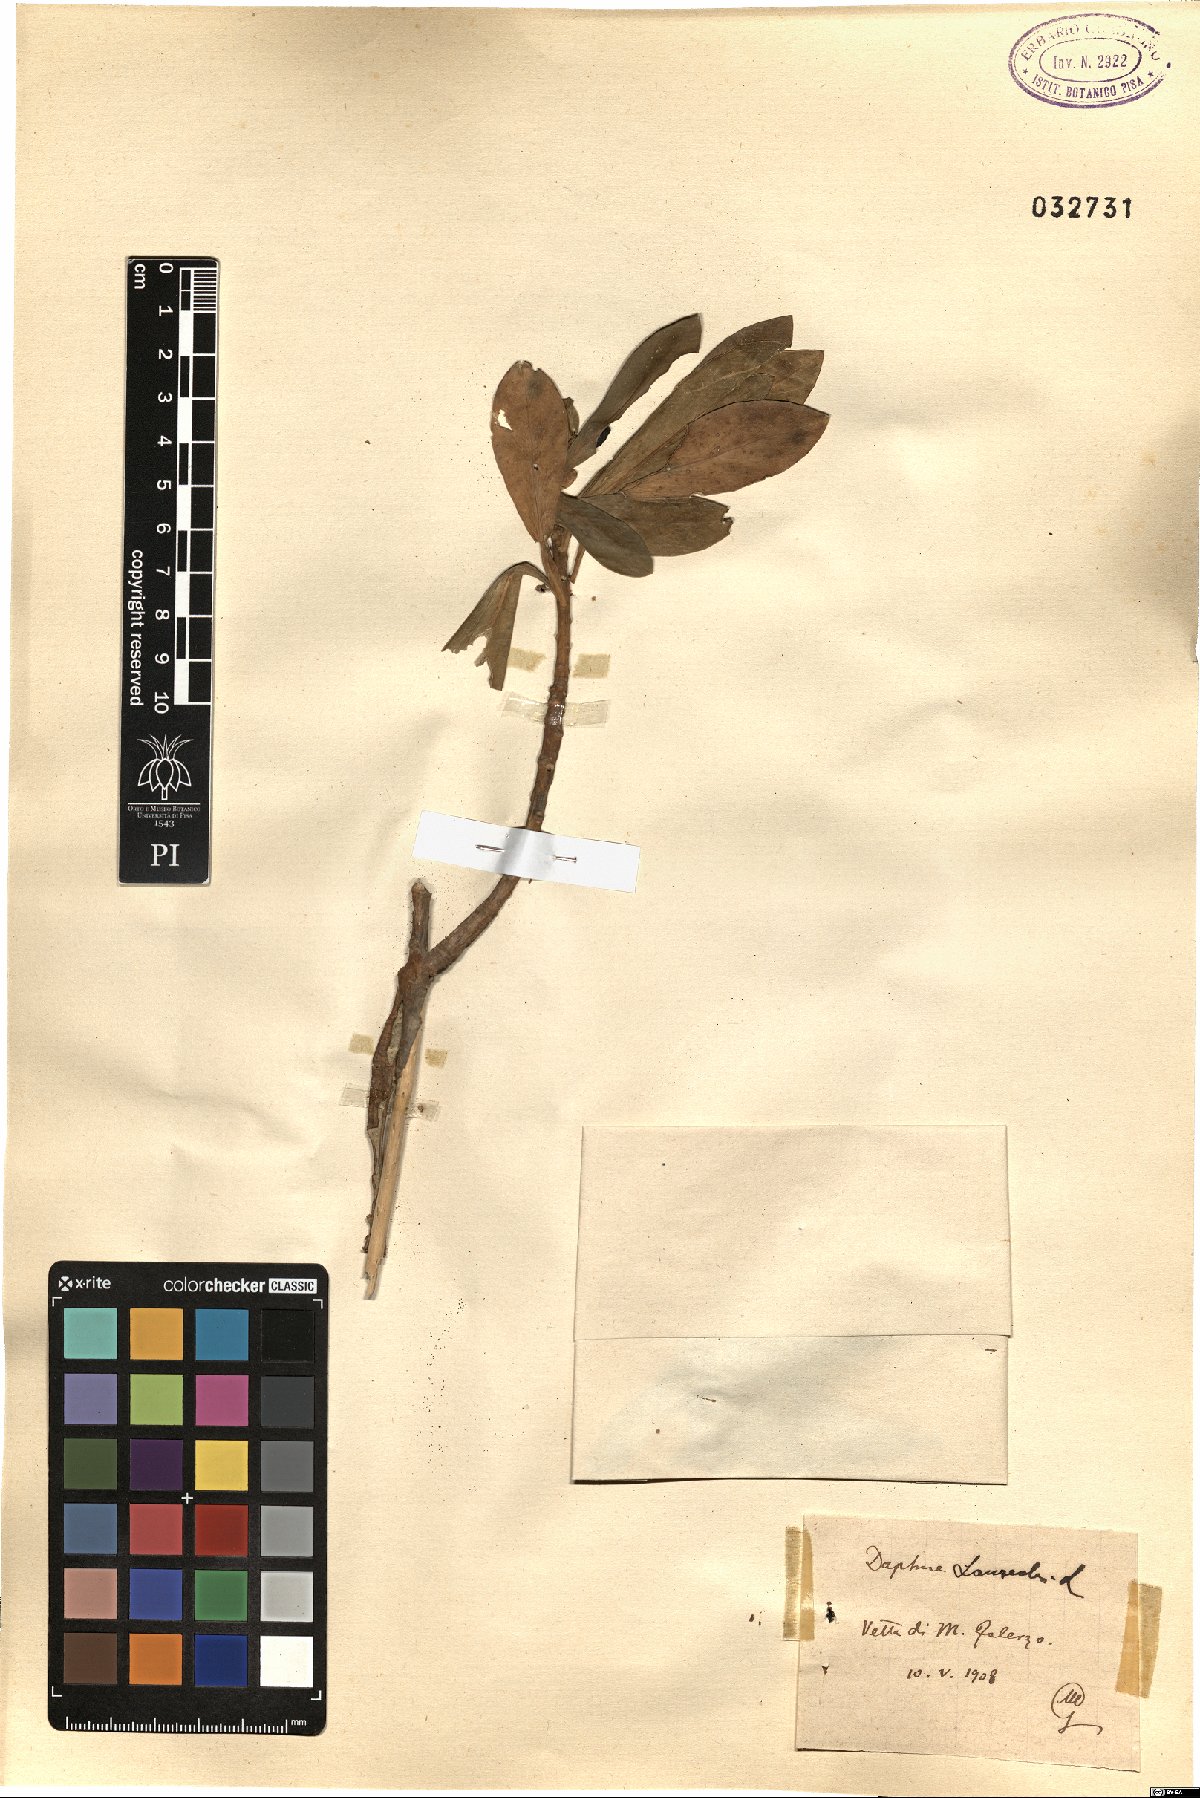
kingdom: Plantae
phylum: Tracheophyta
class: Magnoliopsida
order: Malvales
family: Thymelaeaceae
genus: Daphne
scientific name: Daphne laureola
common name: Spurge-laurel
